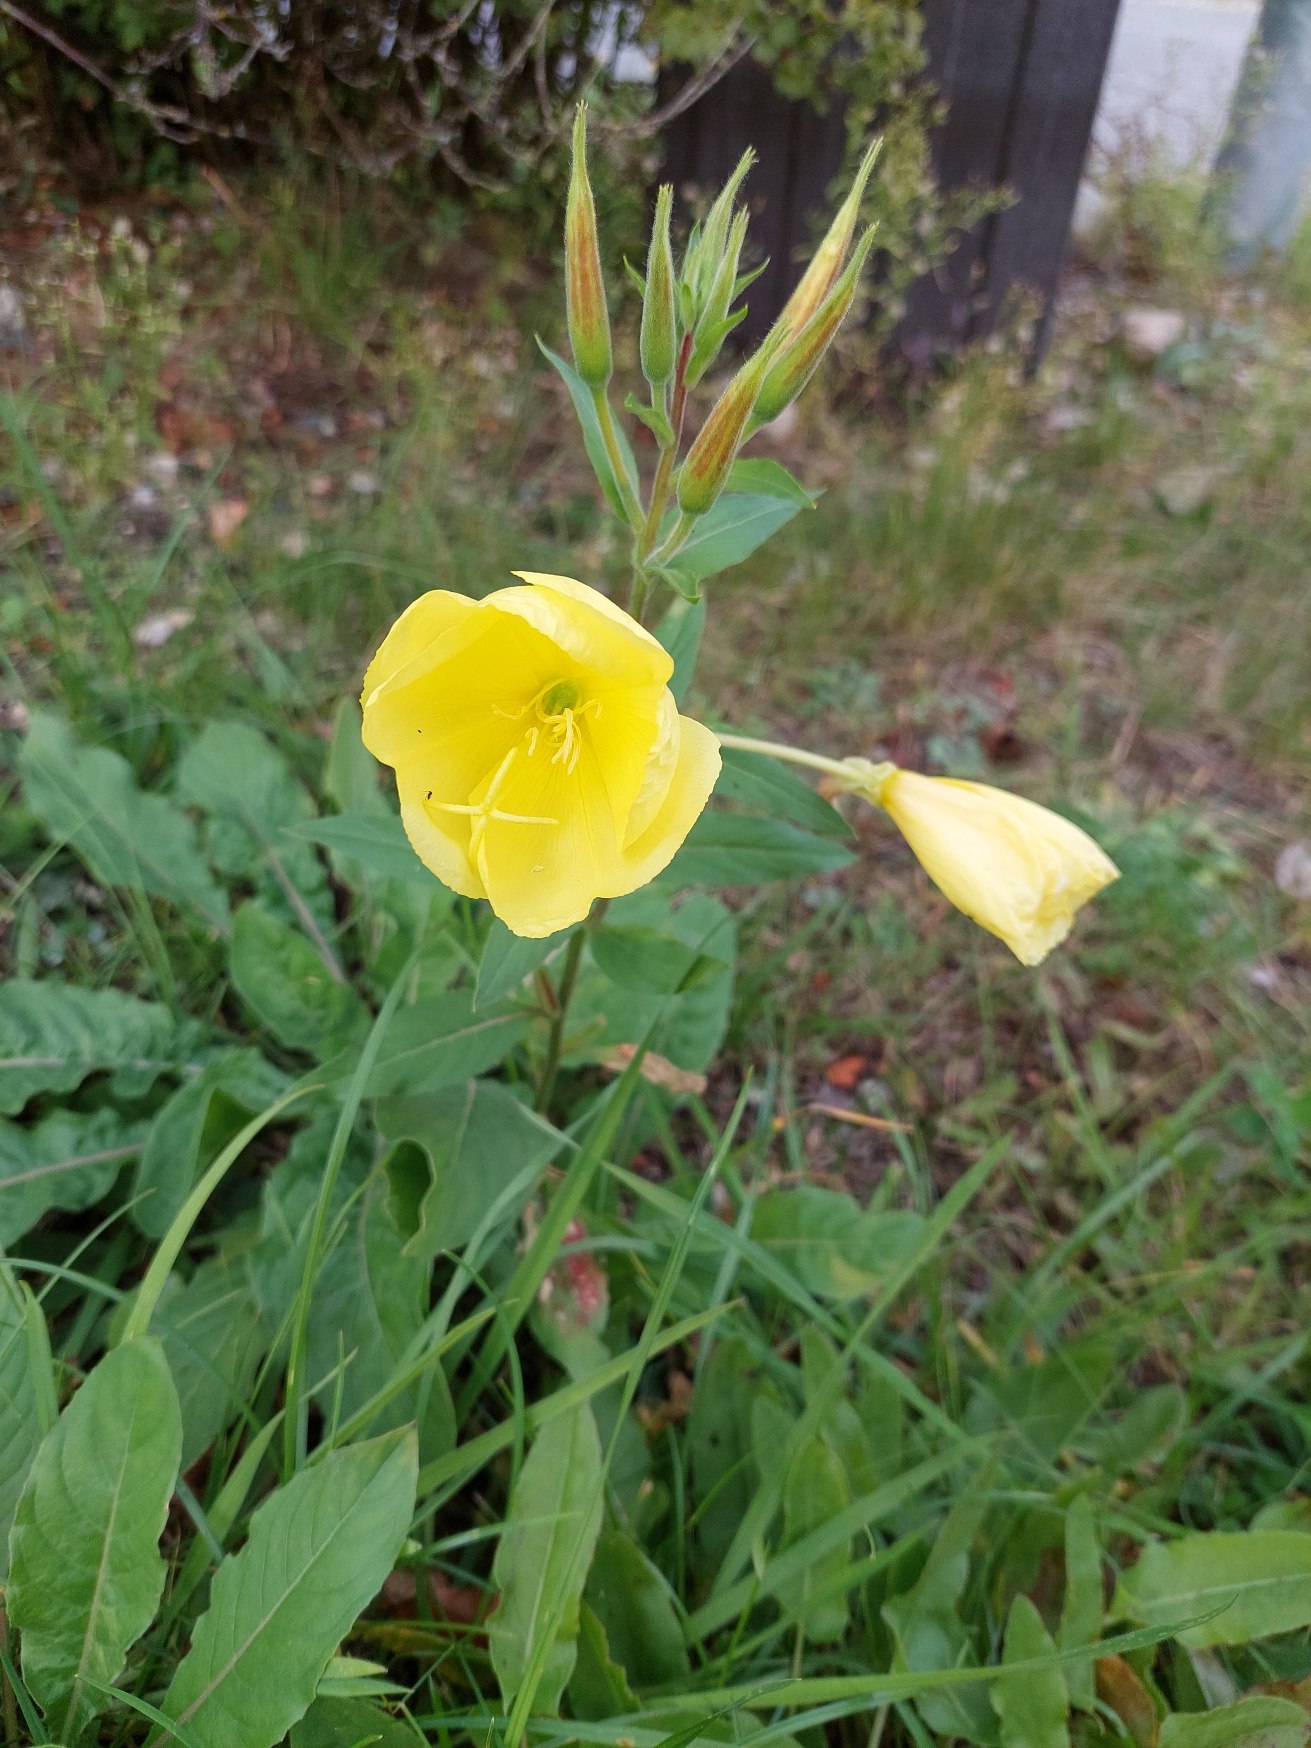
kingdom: Plantae
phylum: Tracheophyta
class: Magnoliopsida
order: Myrtales
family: Onagraceae
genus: Oenothera
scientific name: Oenothera glazioviana
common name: Kæmpe-natlys
